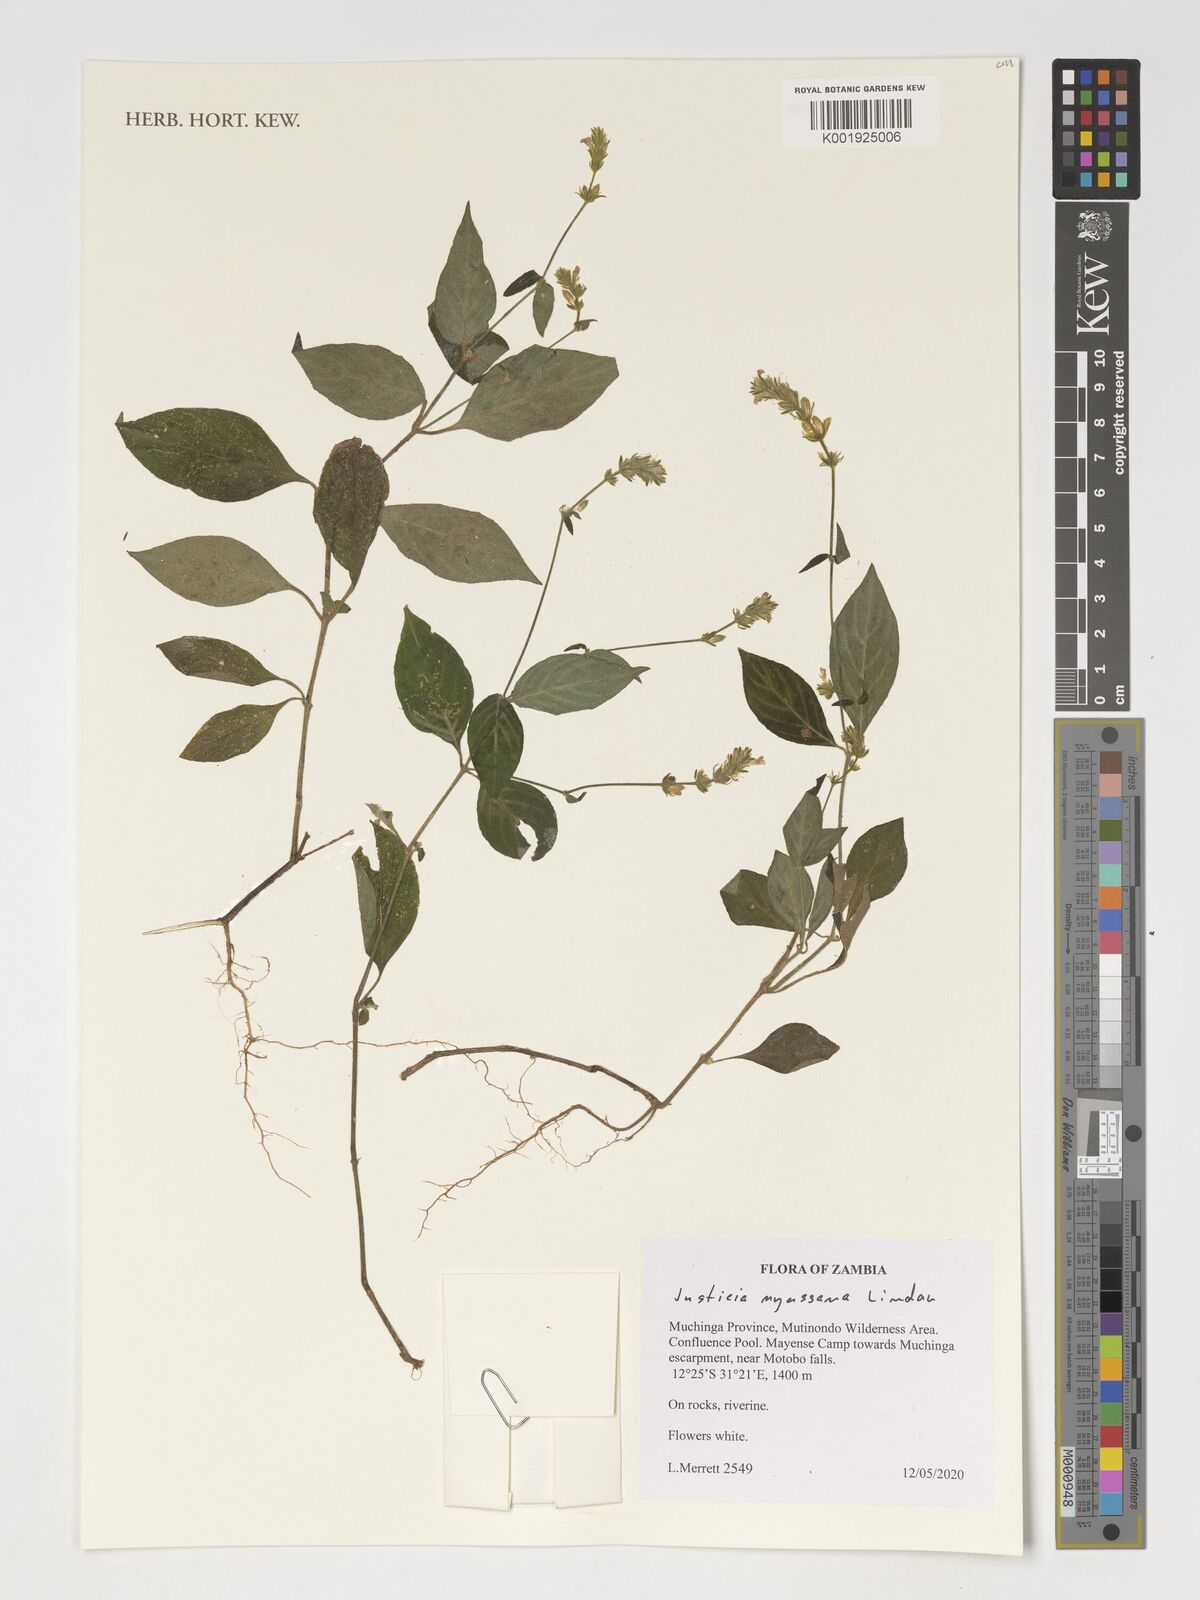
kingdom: Plantae
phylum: Tracheophyta
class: Magnoliopsida
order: Lamiales
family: Acanthaceae
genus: Justicia
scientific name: Justicia nyassana
